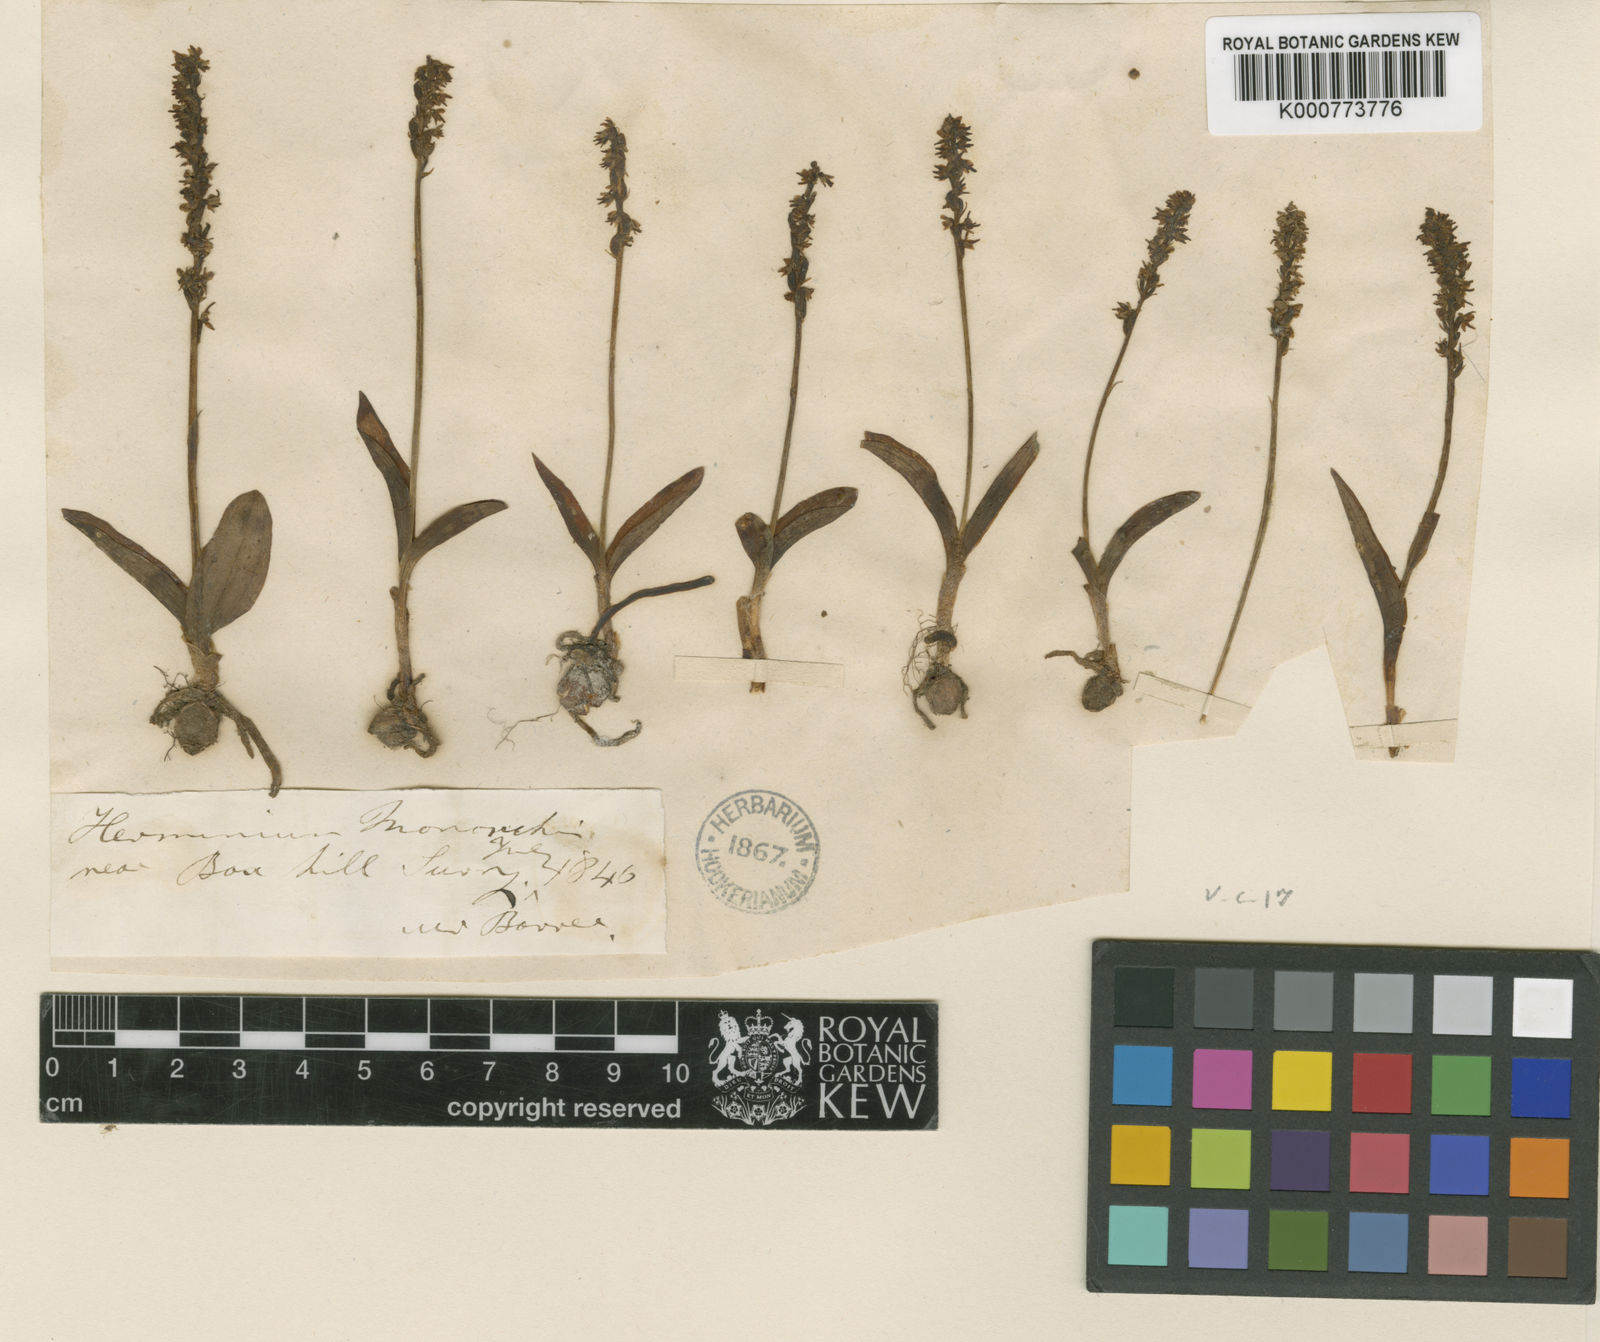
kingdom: Plantae
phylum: Tracheophyta
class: Liliopsida
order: Asparagales
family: Orchidaceae
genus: Herminium
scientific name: Herminium monorchis
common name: Musk orchid
